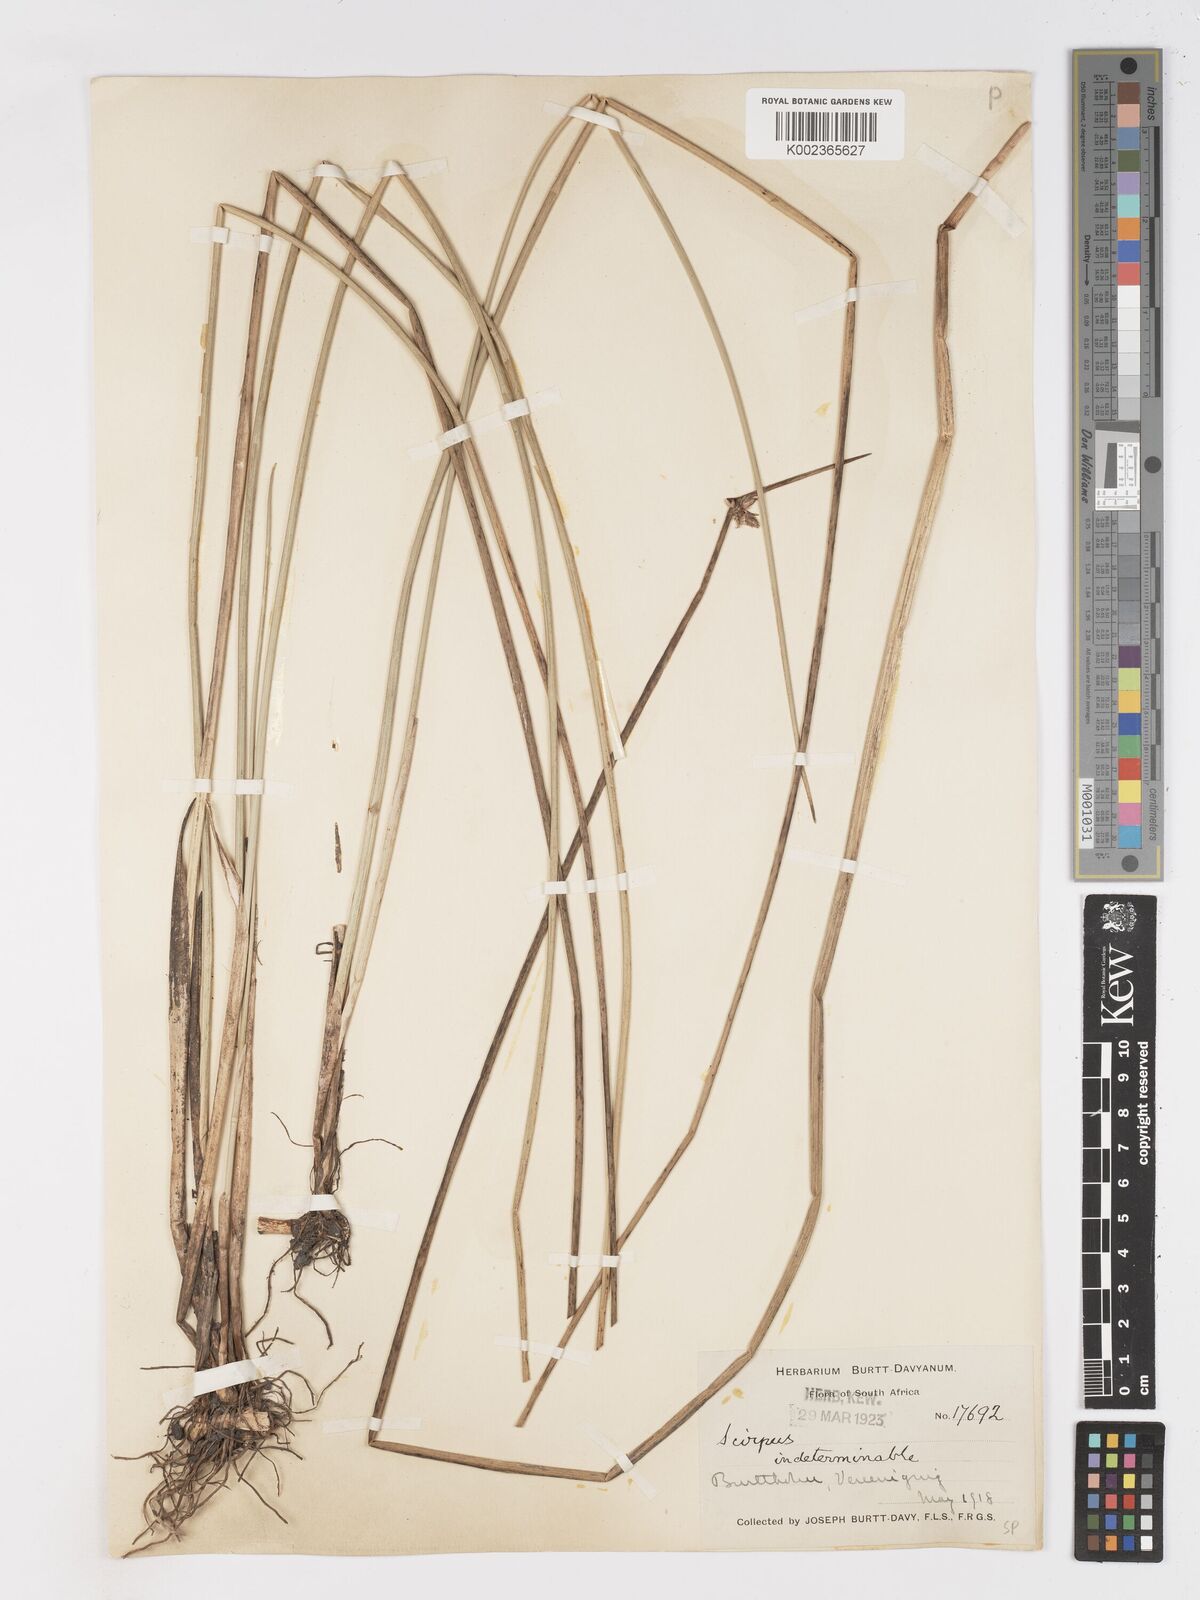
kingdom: Plantae
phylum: Tracheophyta
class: Liliopsida
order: Poales
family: Cyperaceae
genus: Schoenoplectus
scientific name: Schoenoplectus
